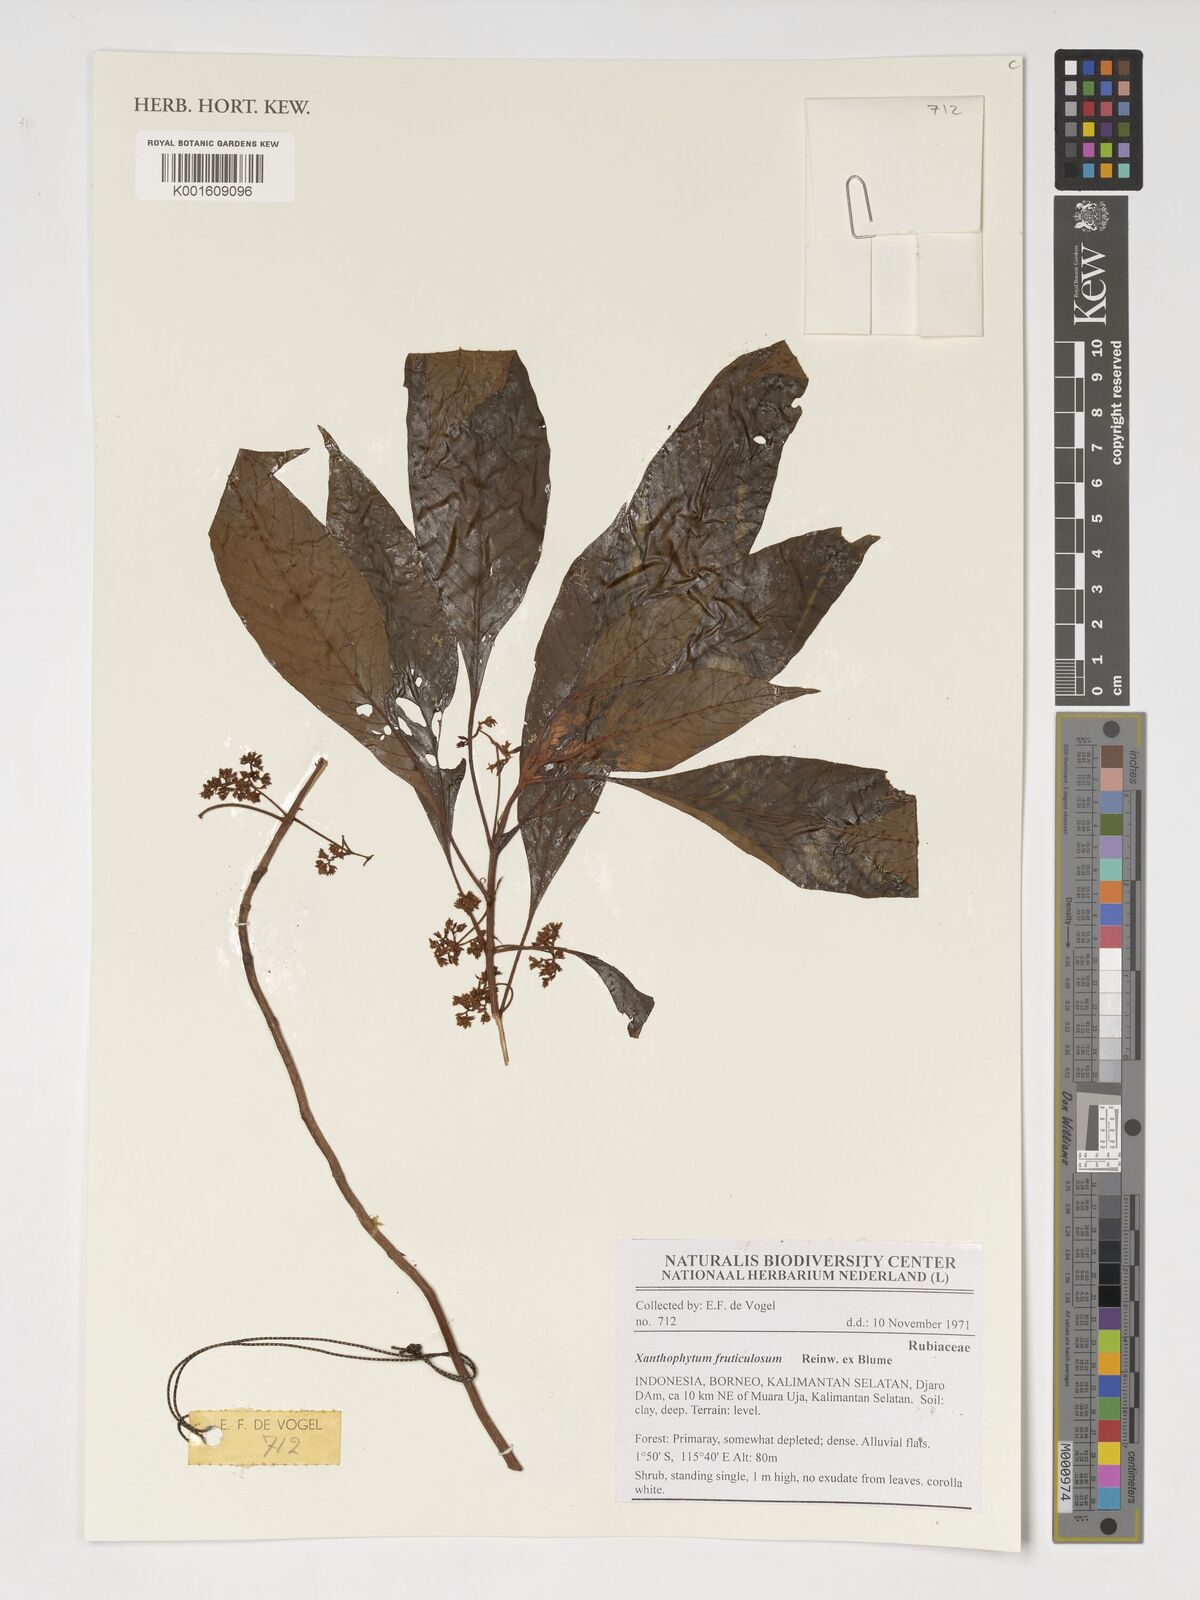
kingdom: Plantae
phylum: Tracheophyta
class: Magnoliopsida
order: Gentianales
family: Rubiaceae
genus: Xanthophytum
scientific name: Xanthophytum fruticulosum
